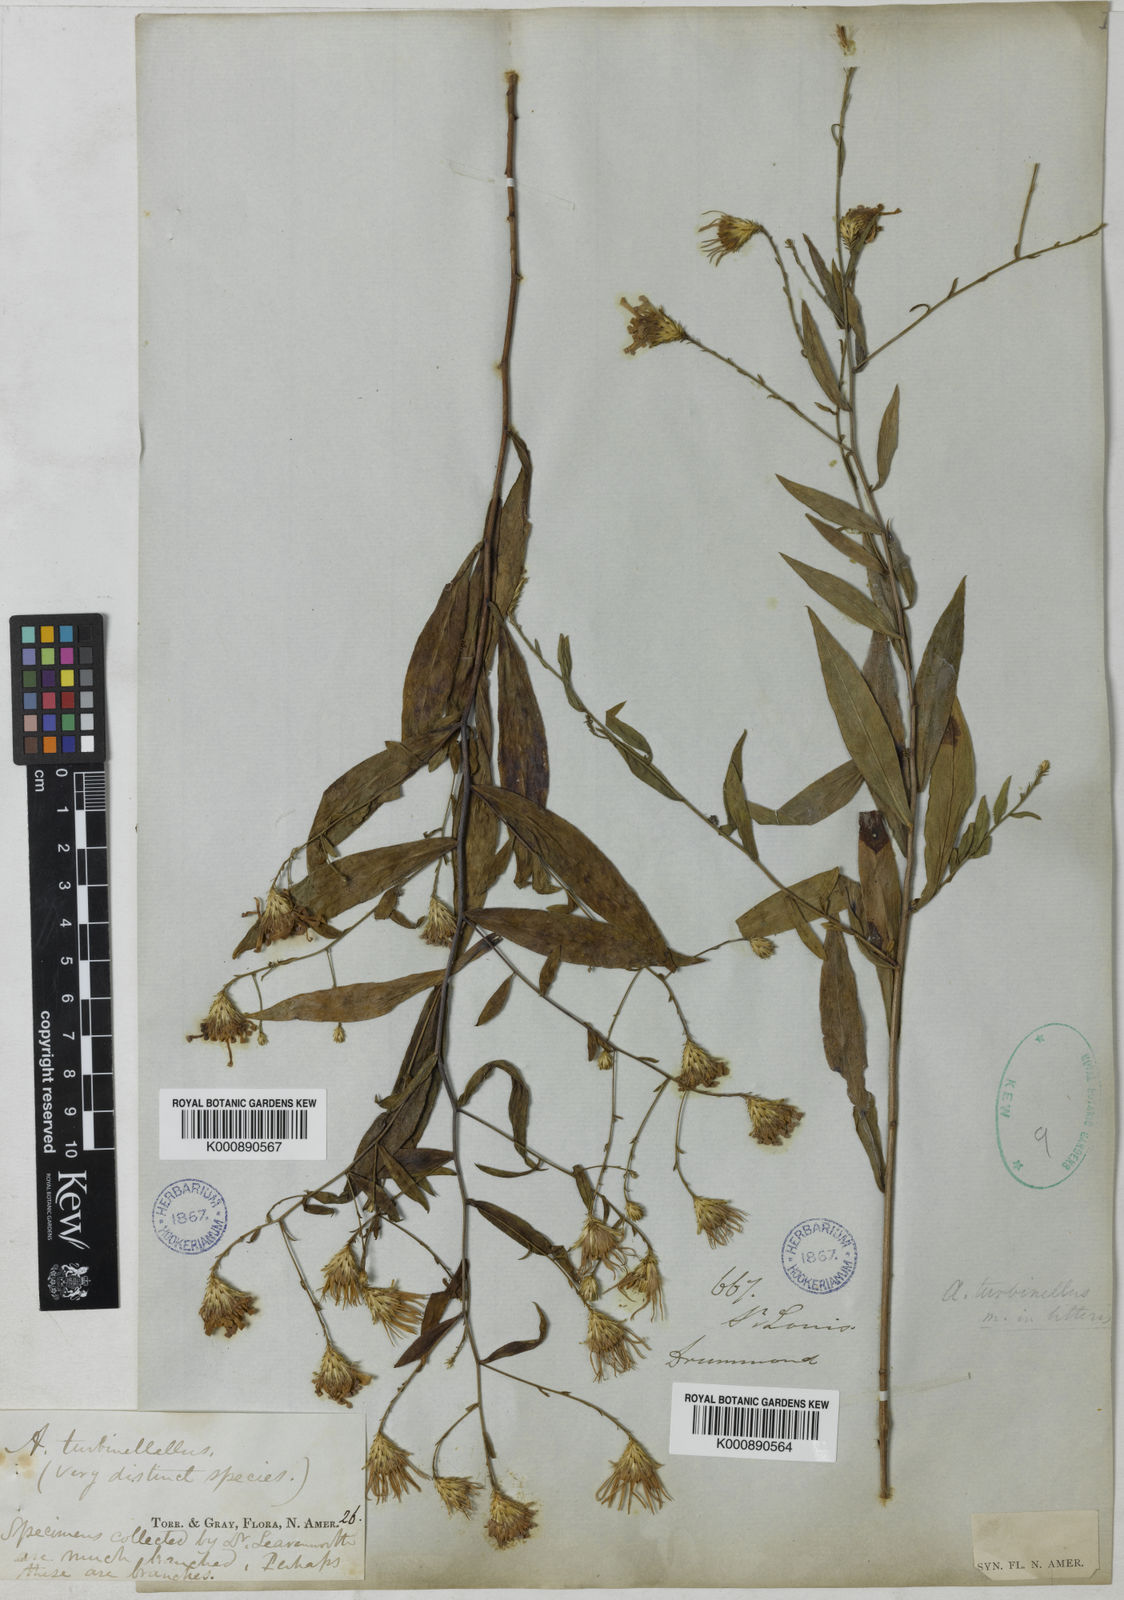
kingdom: Plantae
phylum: Tracheophyta
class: Magnoliopsida
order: Asterales
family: Asteraceae
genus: Symphyotrichum
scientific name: Symphyotrichum turbinellum
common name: Prairie aster
